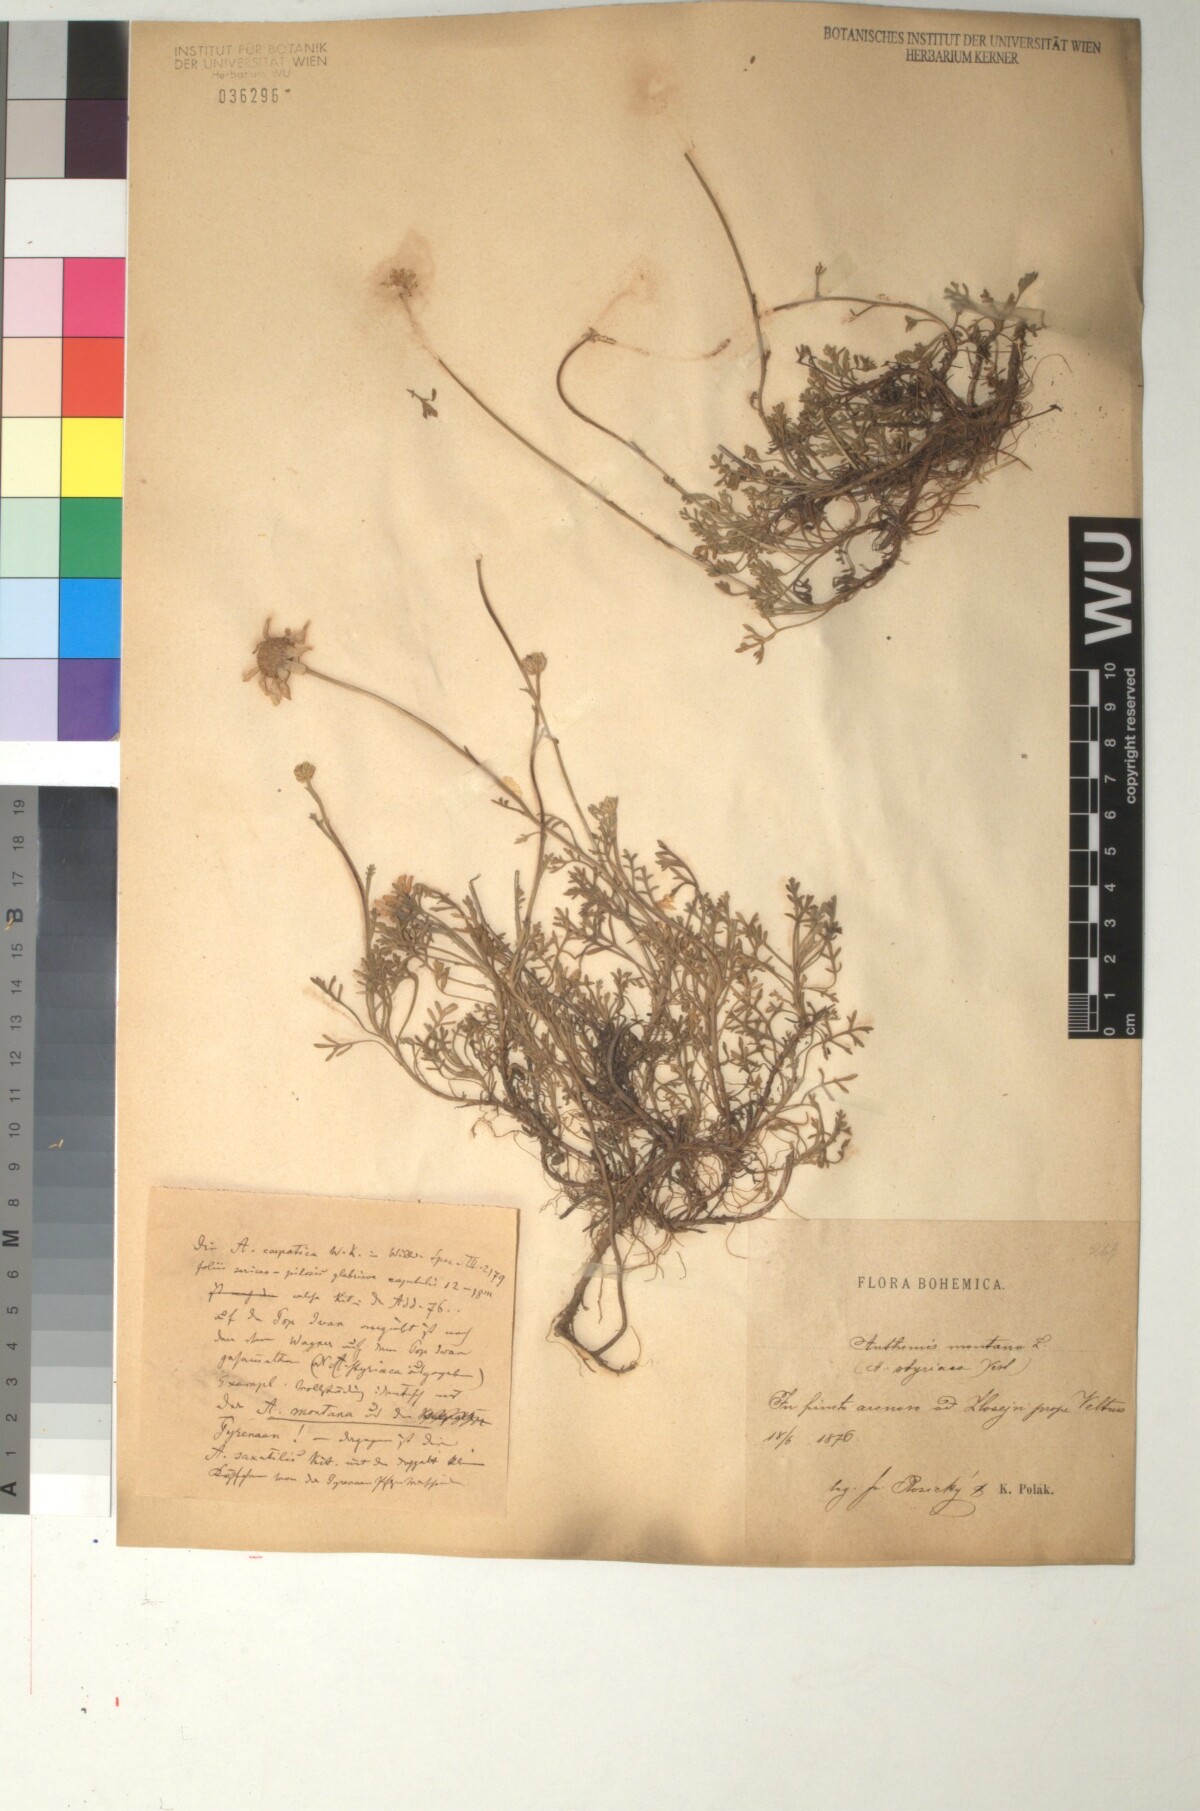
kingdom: Plantae
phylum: Tracheophyta
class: Magnoliopsida
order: Asterales
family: Asteraceae
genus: Anthemis
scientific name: Anthemis cretica
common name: Mountain dog-daisy
